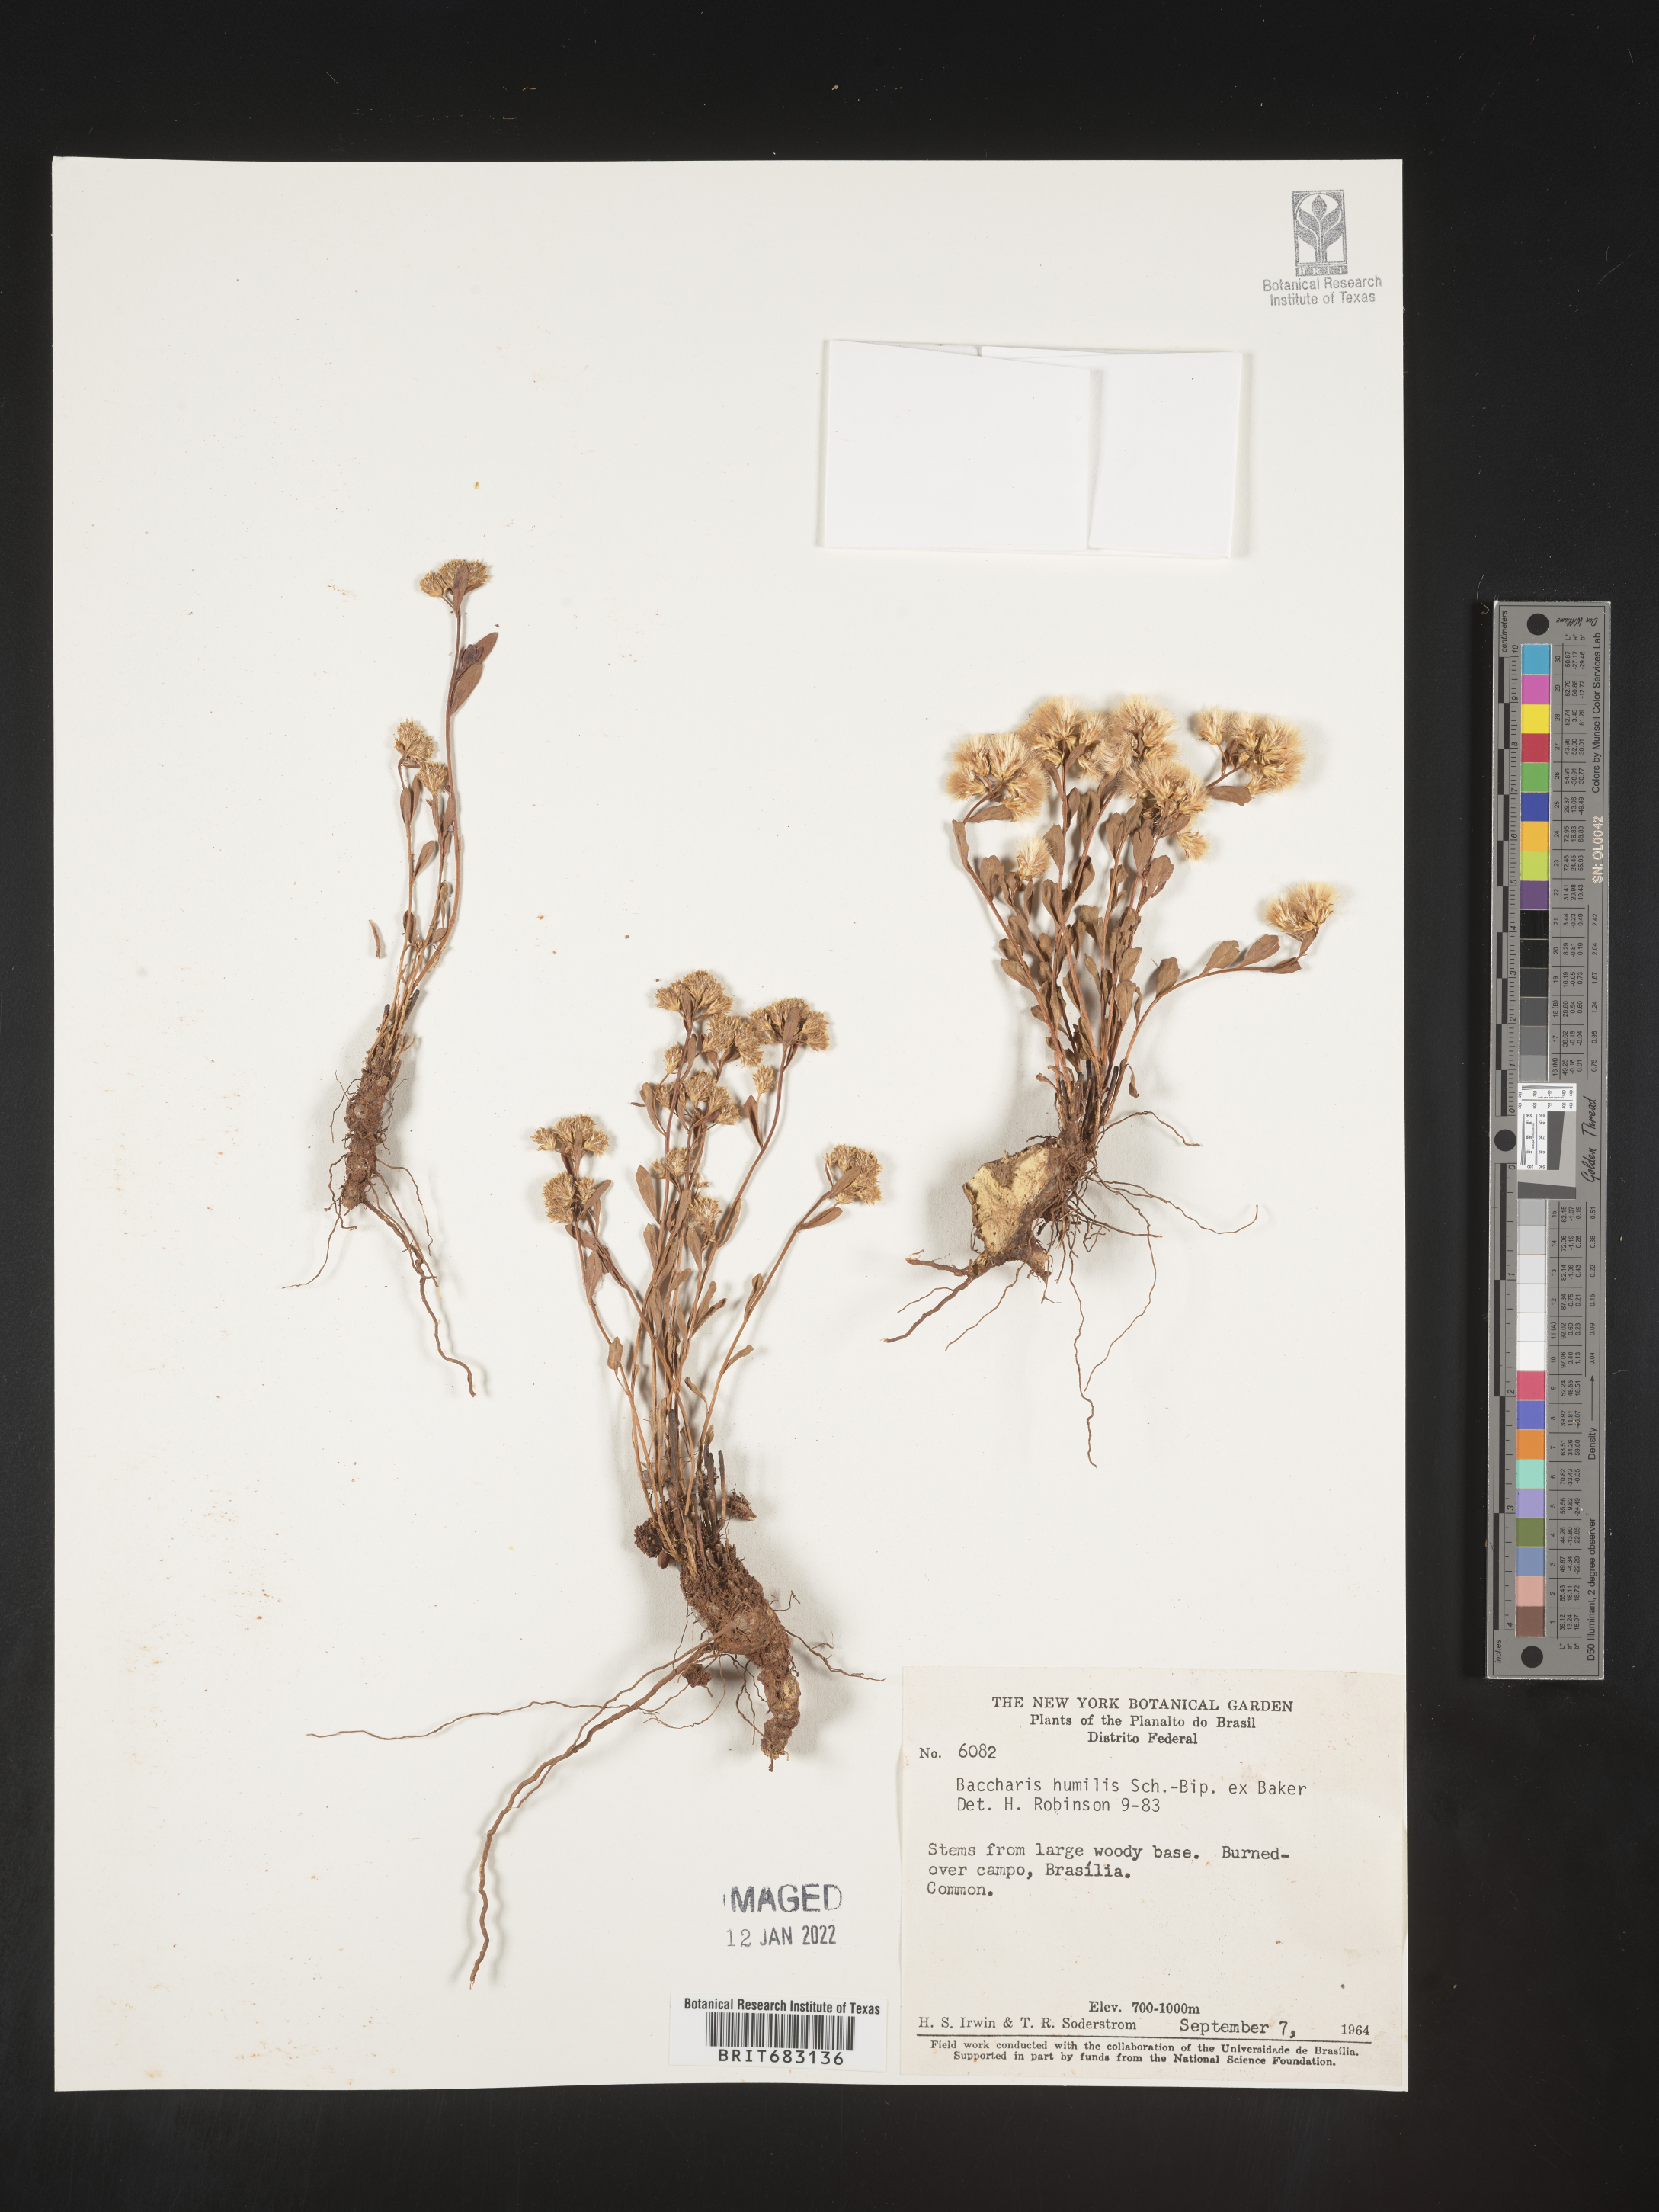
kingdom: Plantae
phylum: Tracheophyta
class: Magnoliopsida
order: Asterales
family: Asteraceae
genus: Baccharis
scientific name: Baccharis
